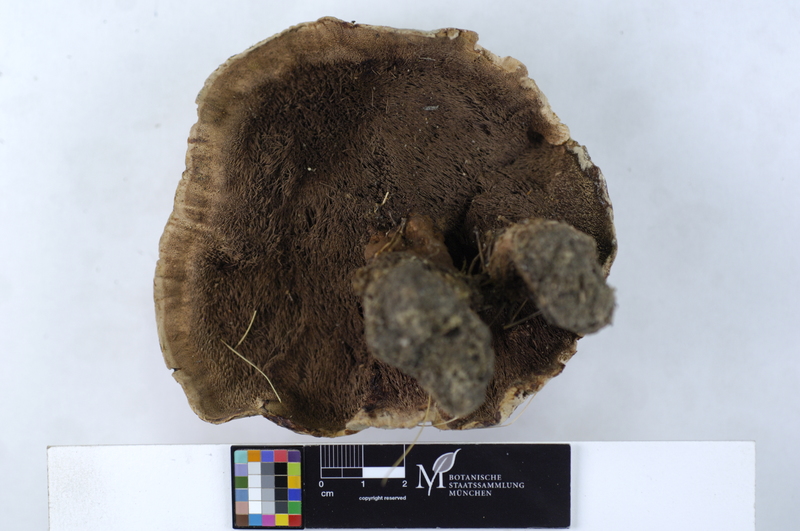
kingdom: Fungi
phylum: Basidiomycota
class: Agaricomycetes
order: Thelephorales
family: Bankeraceae
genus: Hydnellum
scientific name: Hydnellum peckii
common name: Devil's tooth
